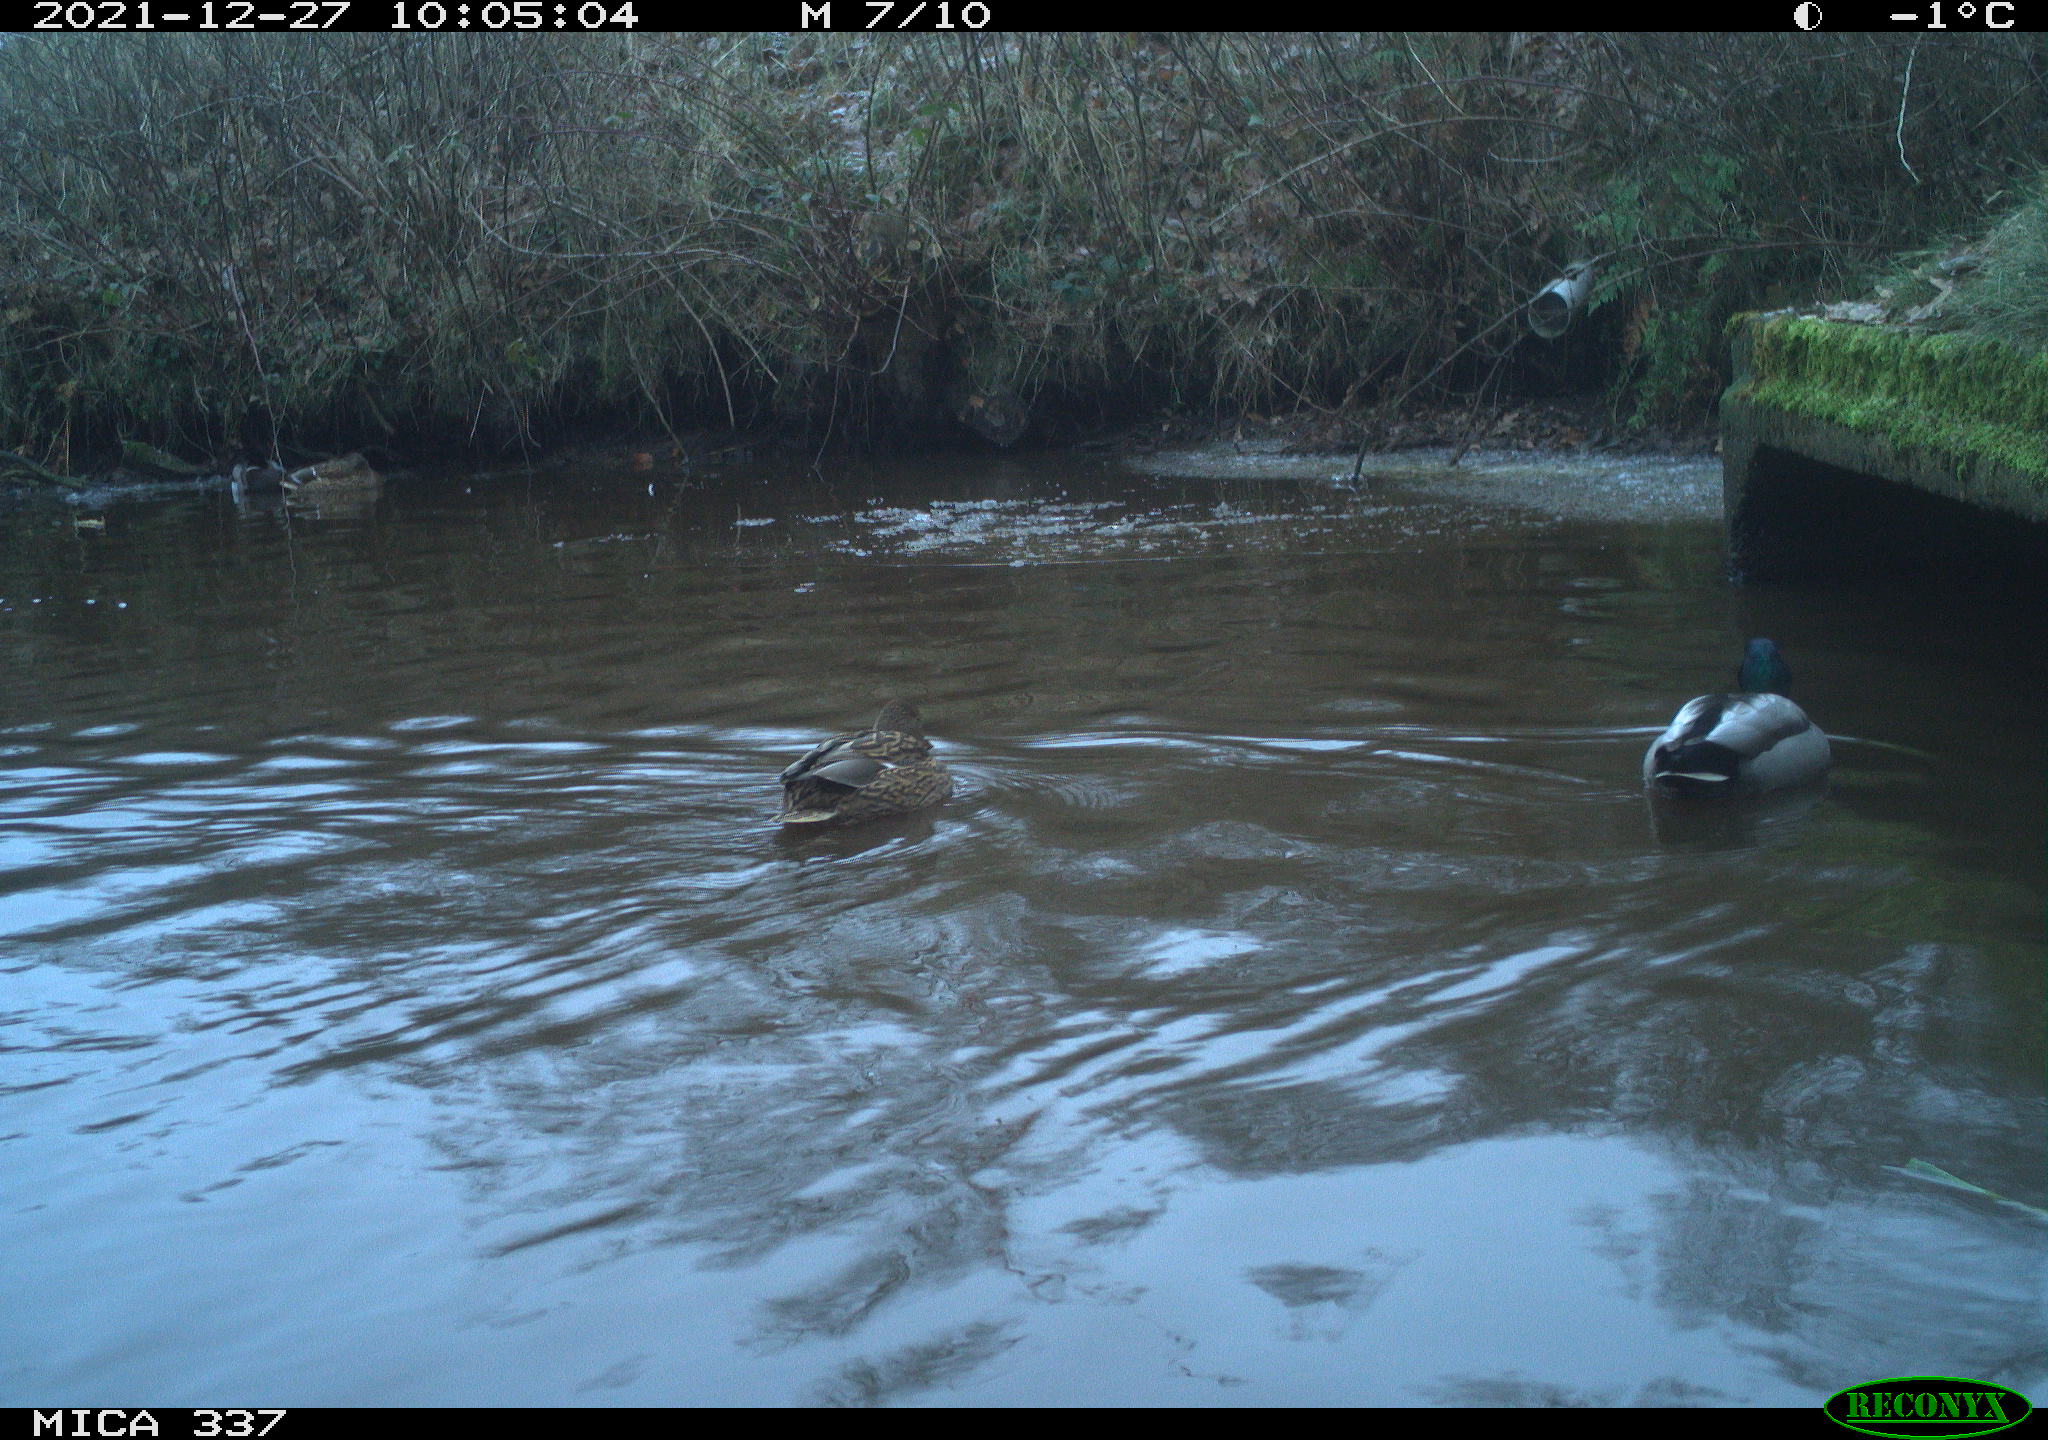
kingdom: Animalia
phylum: Chordata
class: Aves
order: Anseriformes
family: Anatidae
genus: Anas
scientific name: Anas platyrhynchos
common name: Mallard
